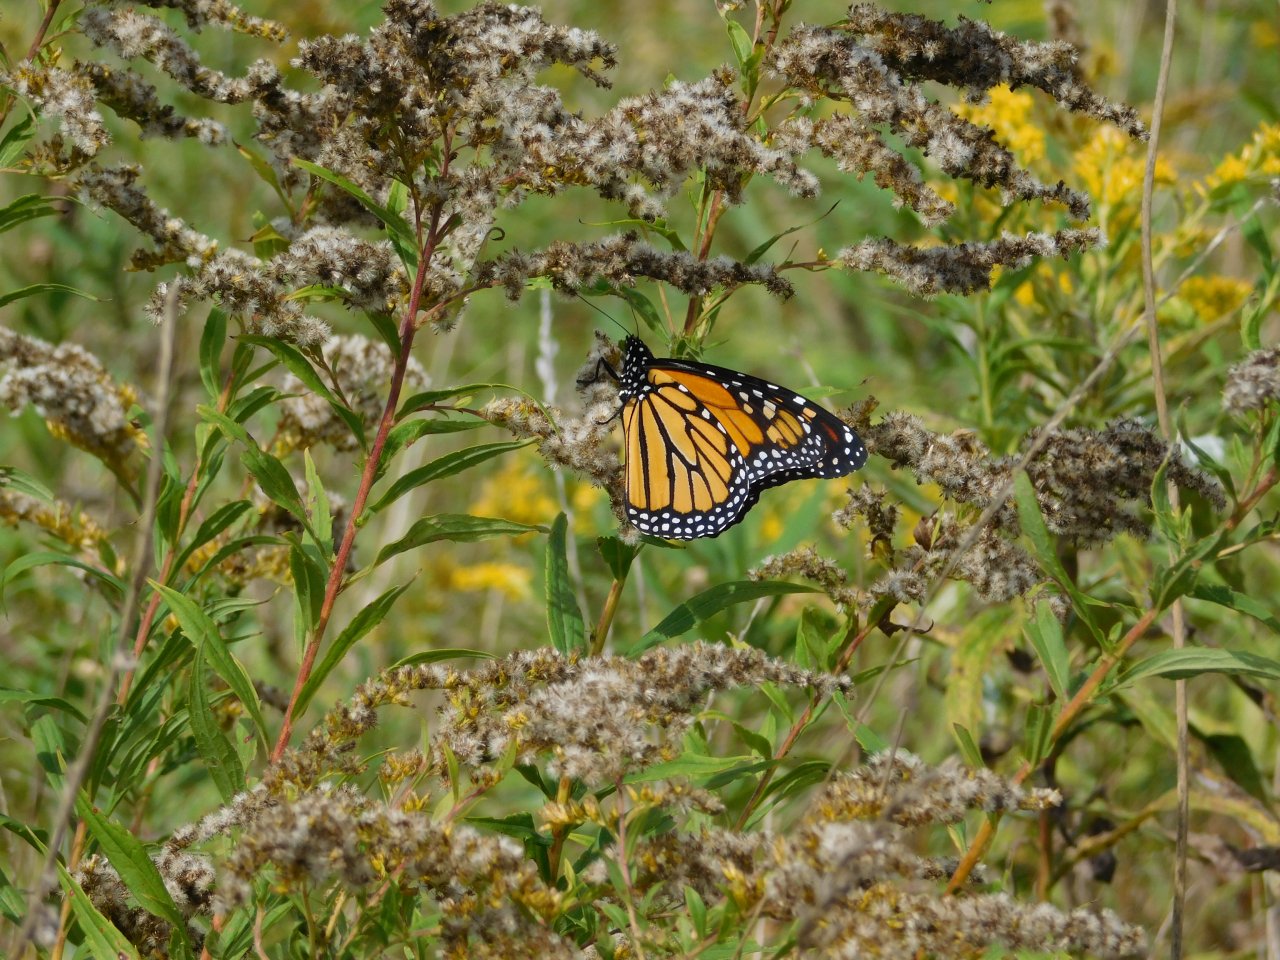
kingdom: Animalia
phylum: Arthropoda
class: Insecta
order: Lepidoptera
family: Nymphalidae
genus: Danaus
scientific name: Danaus plexippus
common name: Monarch
